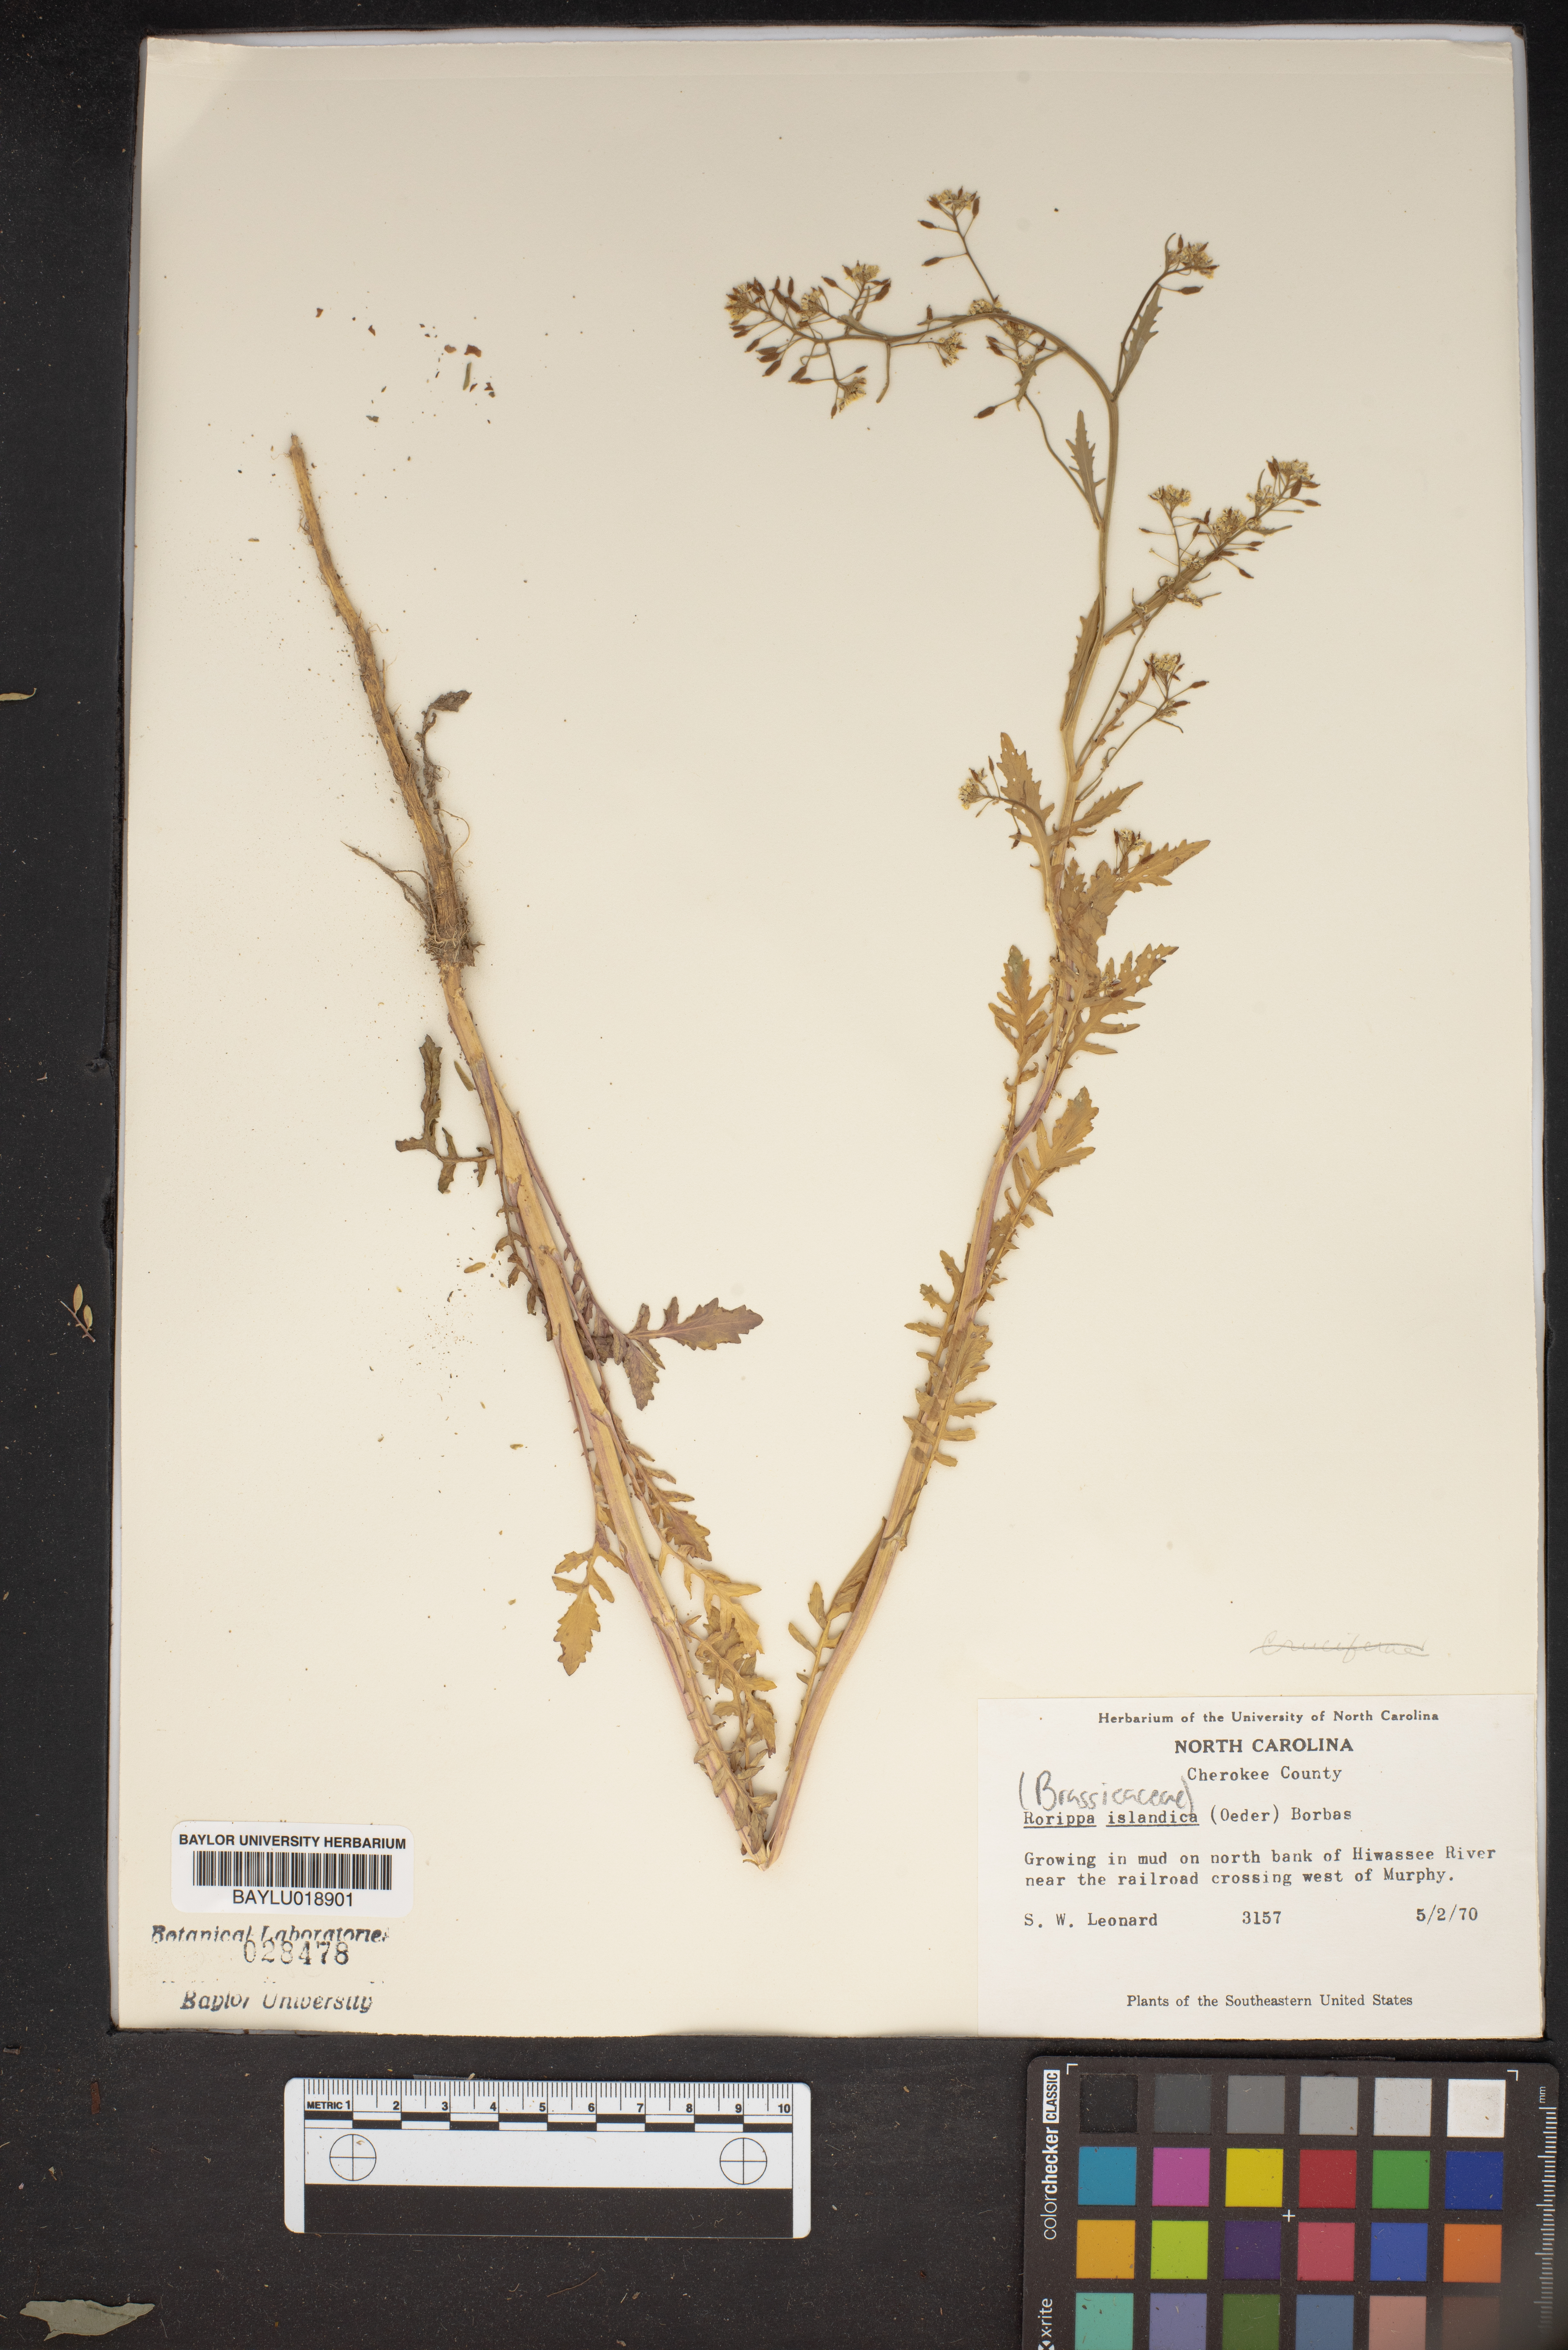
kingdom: Plantae
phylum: Tracheophyta
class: Magnoliopsida
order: Brassicales
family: Brassicaceae
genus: Rorippa
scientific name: Rorippa islandica
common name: Marsh cress
